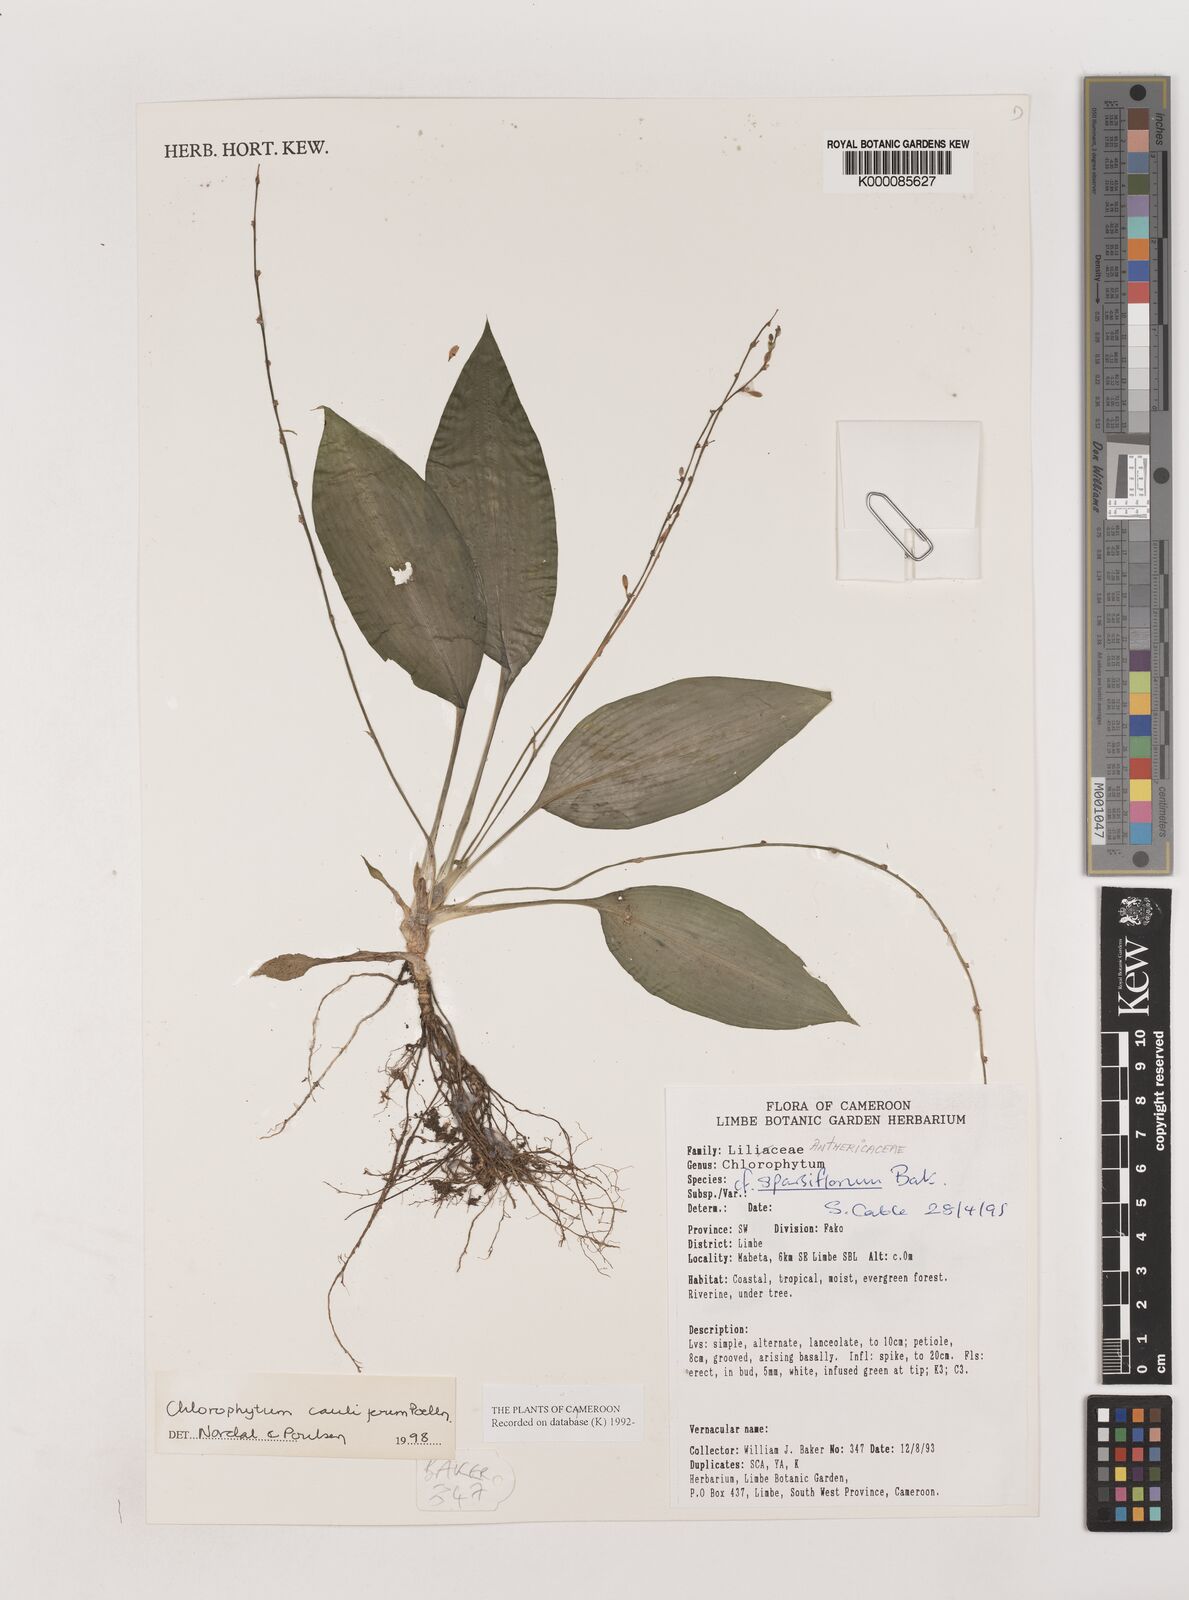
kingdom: Plantae
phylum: Tracheophyta
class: Liliopsida
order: Asparagales
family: Asparagaceae
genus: Chlorophytum
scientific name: Chlorophytum sparsiflorum
